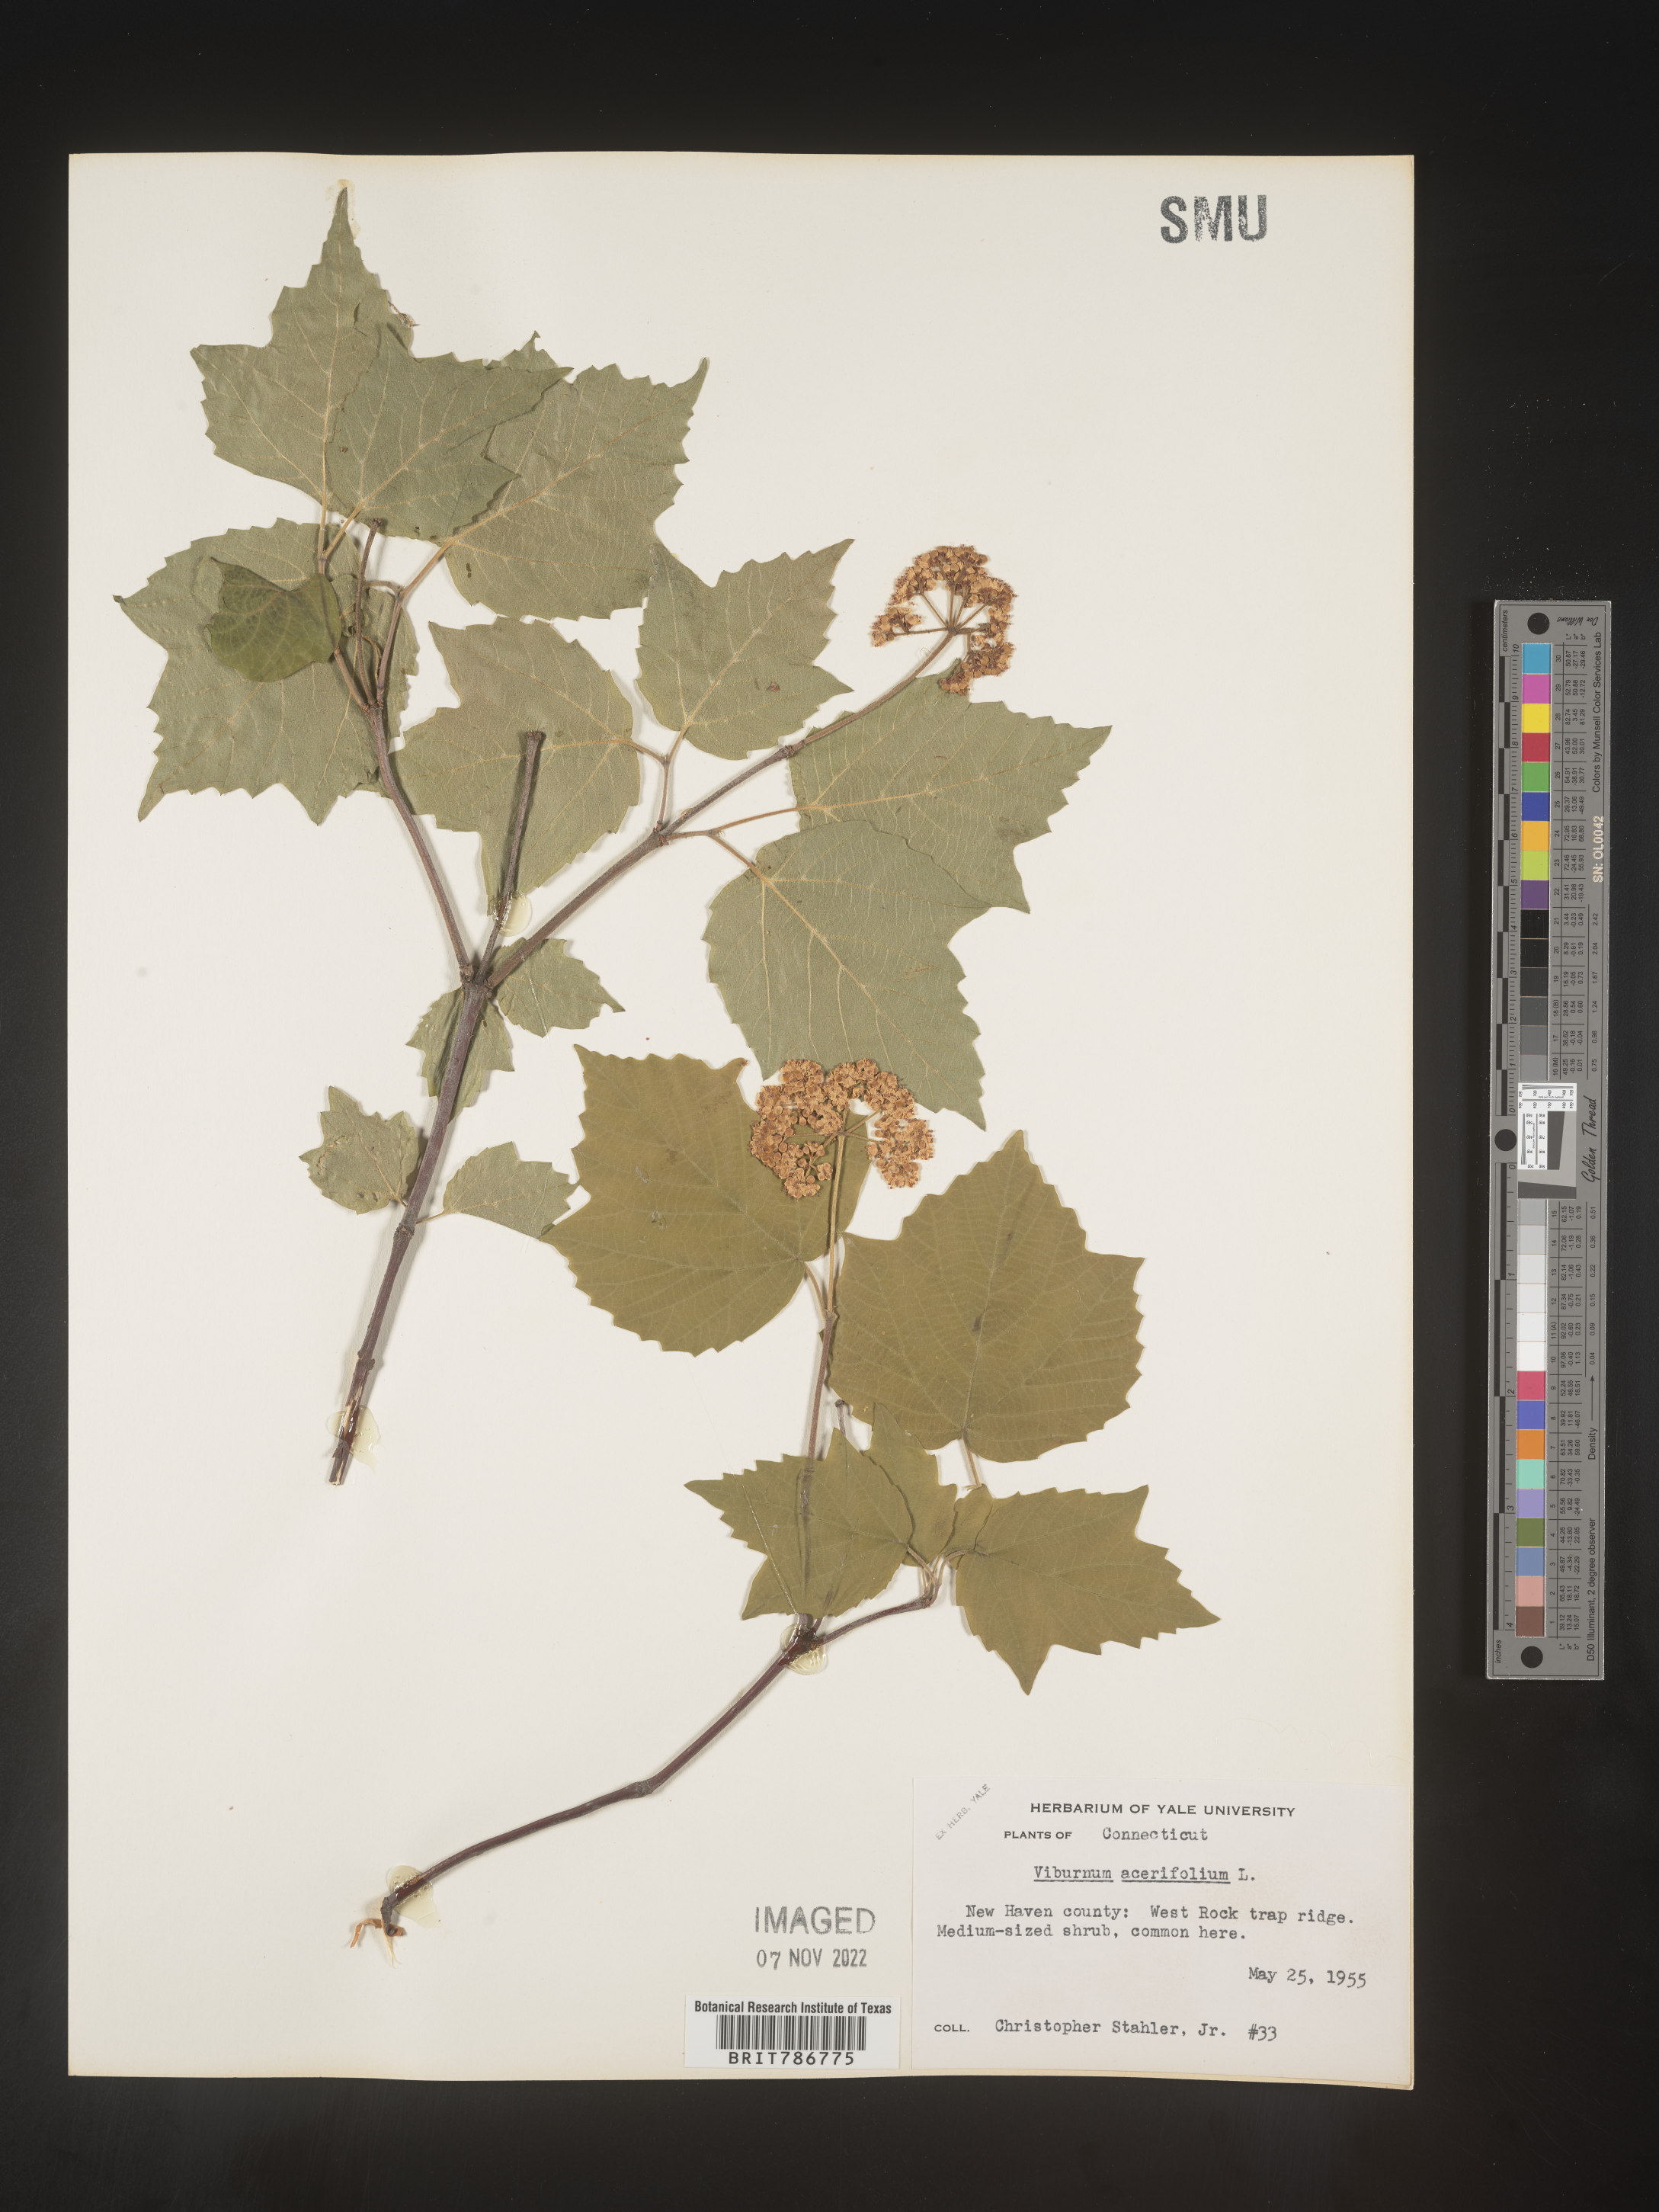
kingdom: Plantae
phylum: Tracheophyta
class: Magnoliopsida
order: Dipsacales
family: Viburnaceae
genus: Viburnum
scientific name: Viburnum acerifolium
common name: Dockmackie
